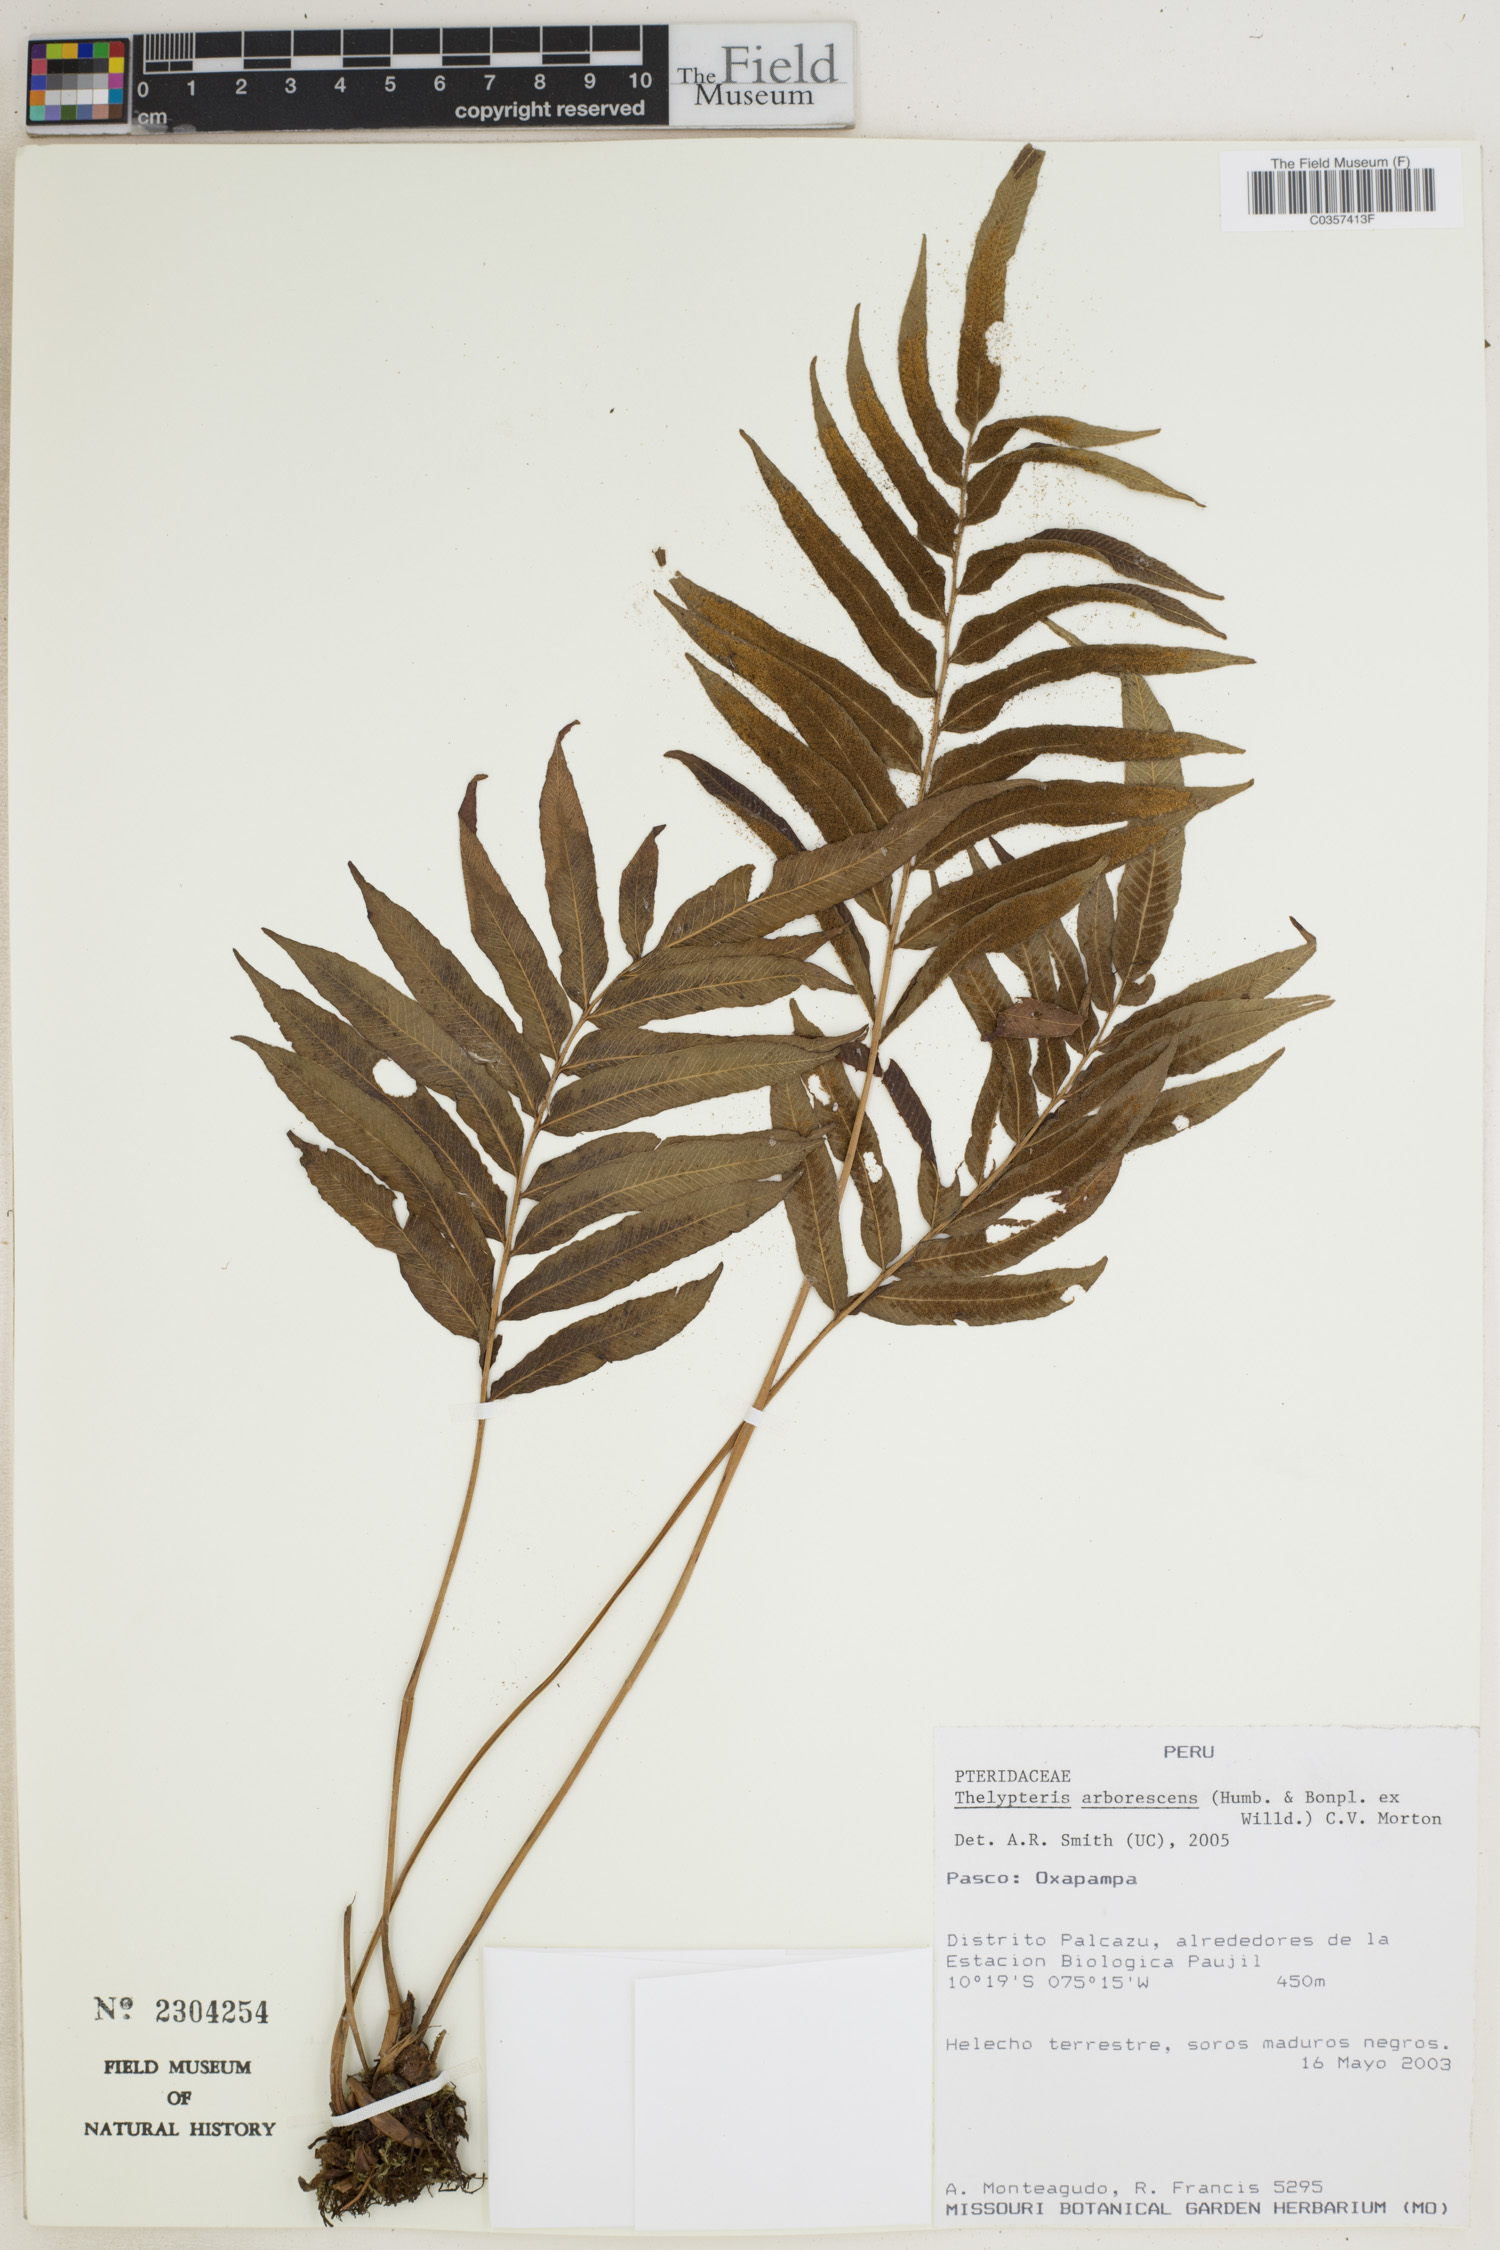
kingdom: Plantae
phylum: Tracheophyta
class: Polypodiopsida
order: Polypodiales
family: Thelypteridaceae
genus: Meniscium
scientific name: Meniscium arborescens
